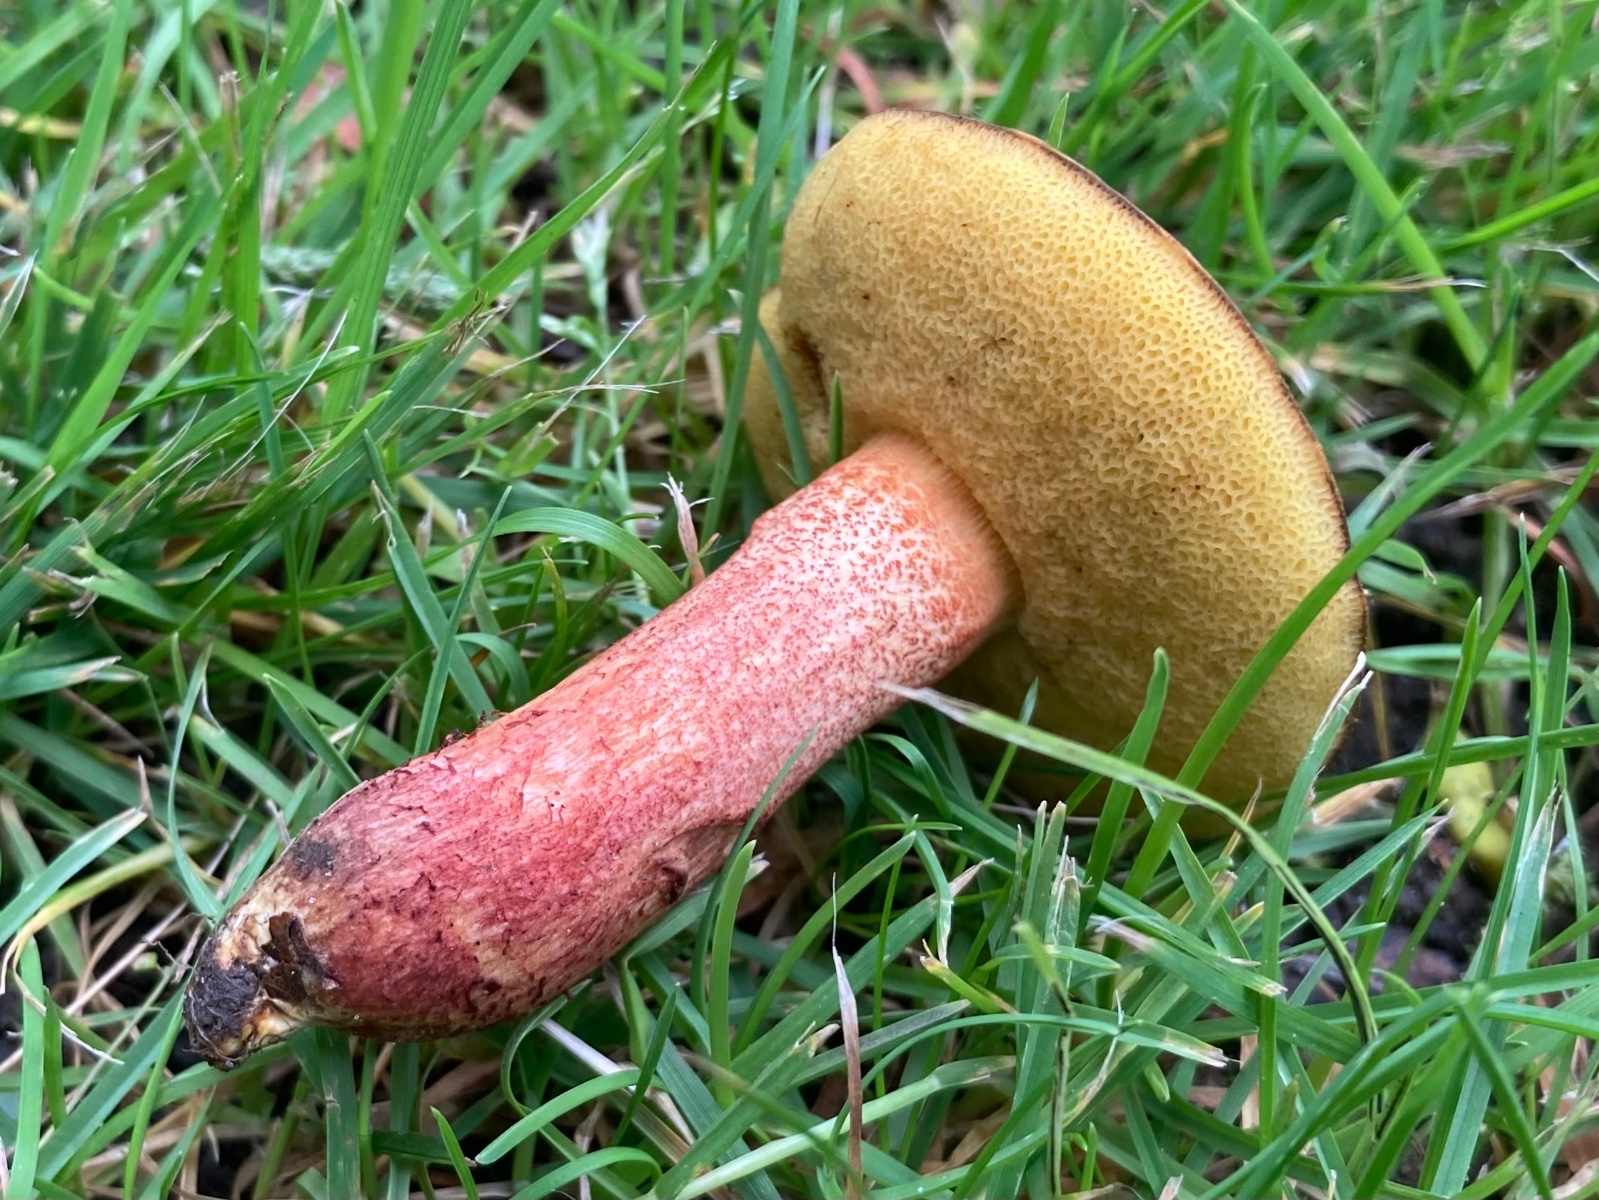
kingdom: Fungi
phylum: Basidiomycota
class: Agaricomycetes
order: Boletales
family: Boletaceae
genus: Hortiboletus
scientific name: Hortiboletus bubalinus
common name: aurora-rørhat
